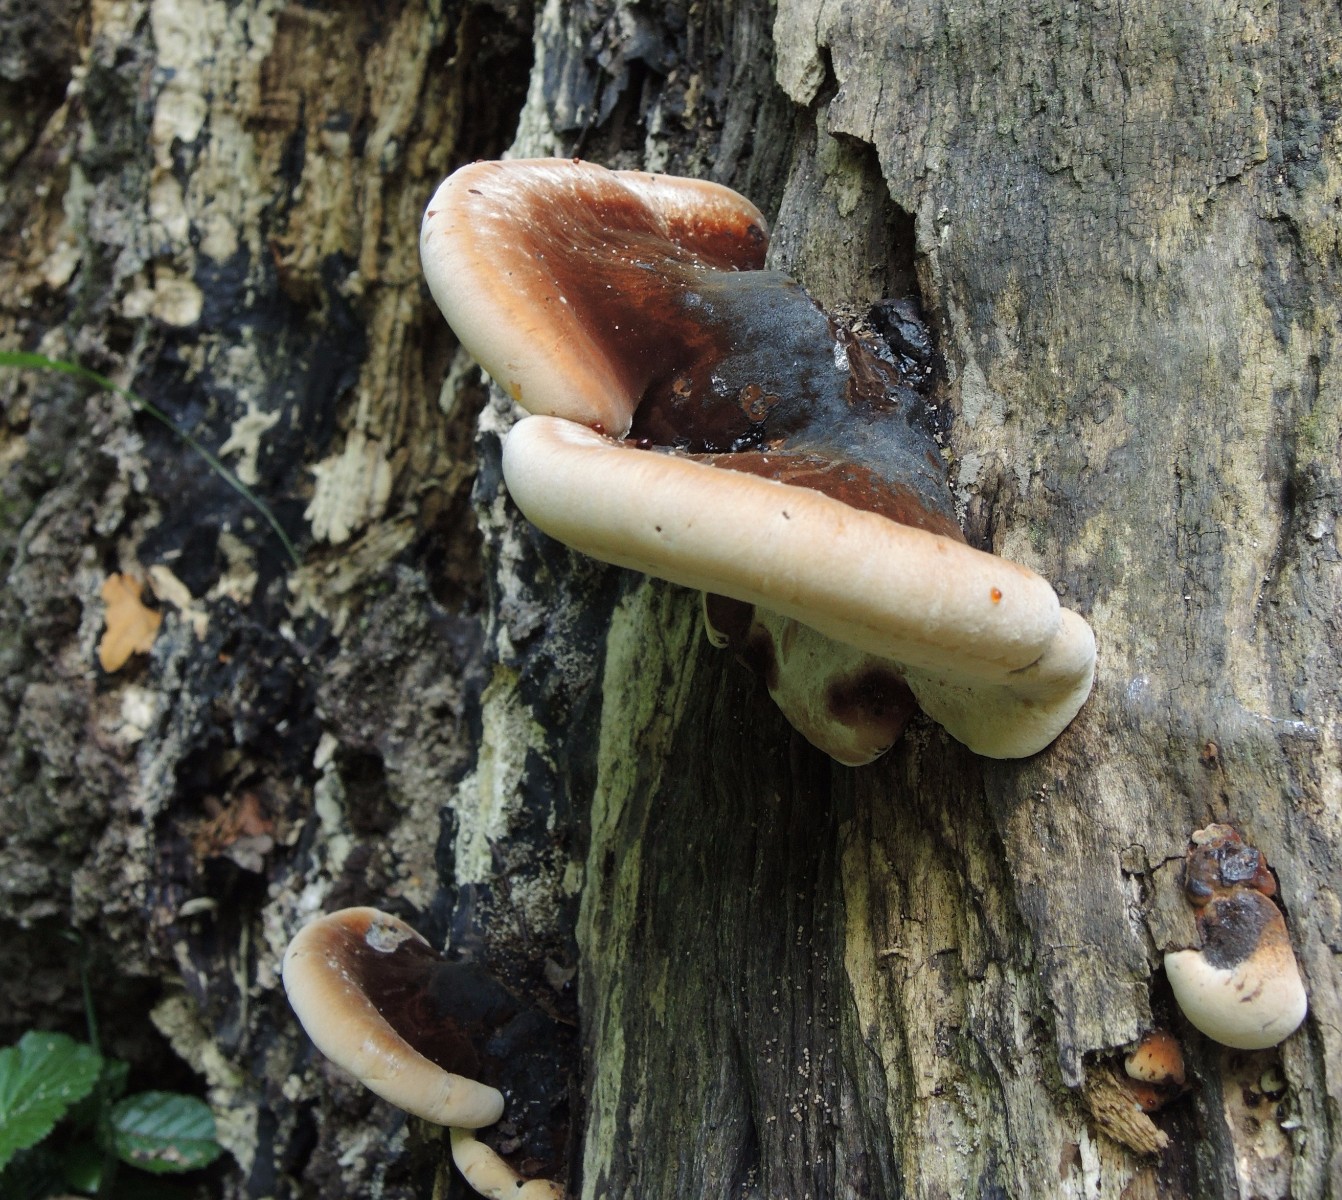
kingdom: Fungi
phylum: Basidiomycota
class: Agaricomycetes
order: Polyporales
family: Ischnodermataceae
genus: Ischnoderma
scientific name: Ischnoderma resinosum
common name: løv-tjæreporesvamp
